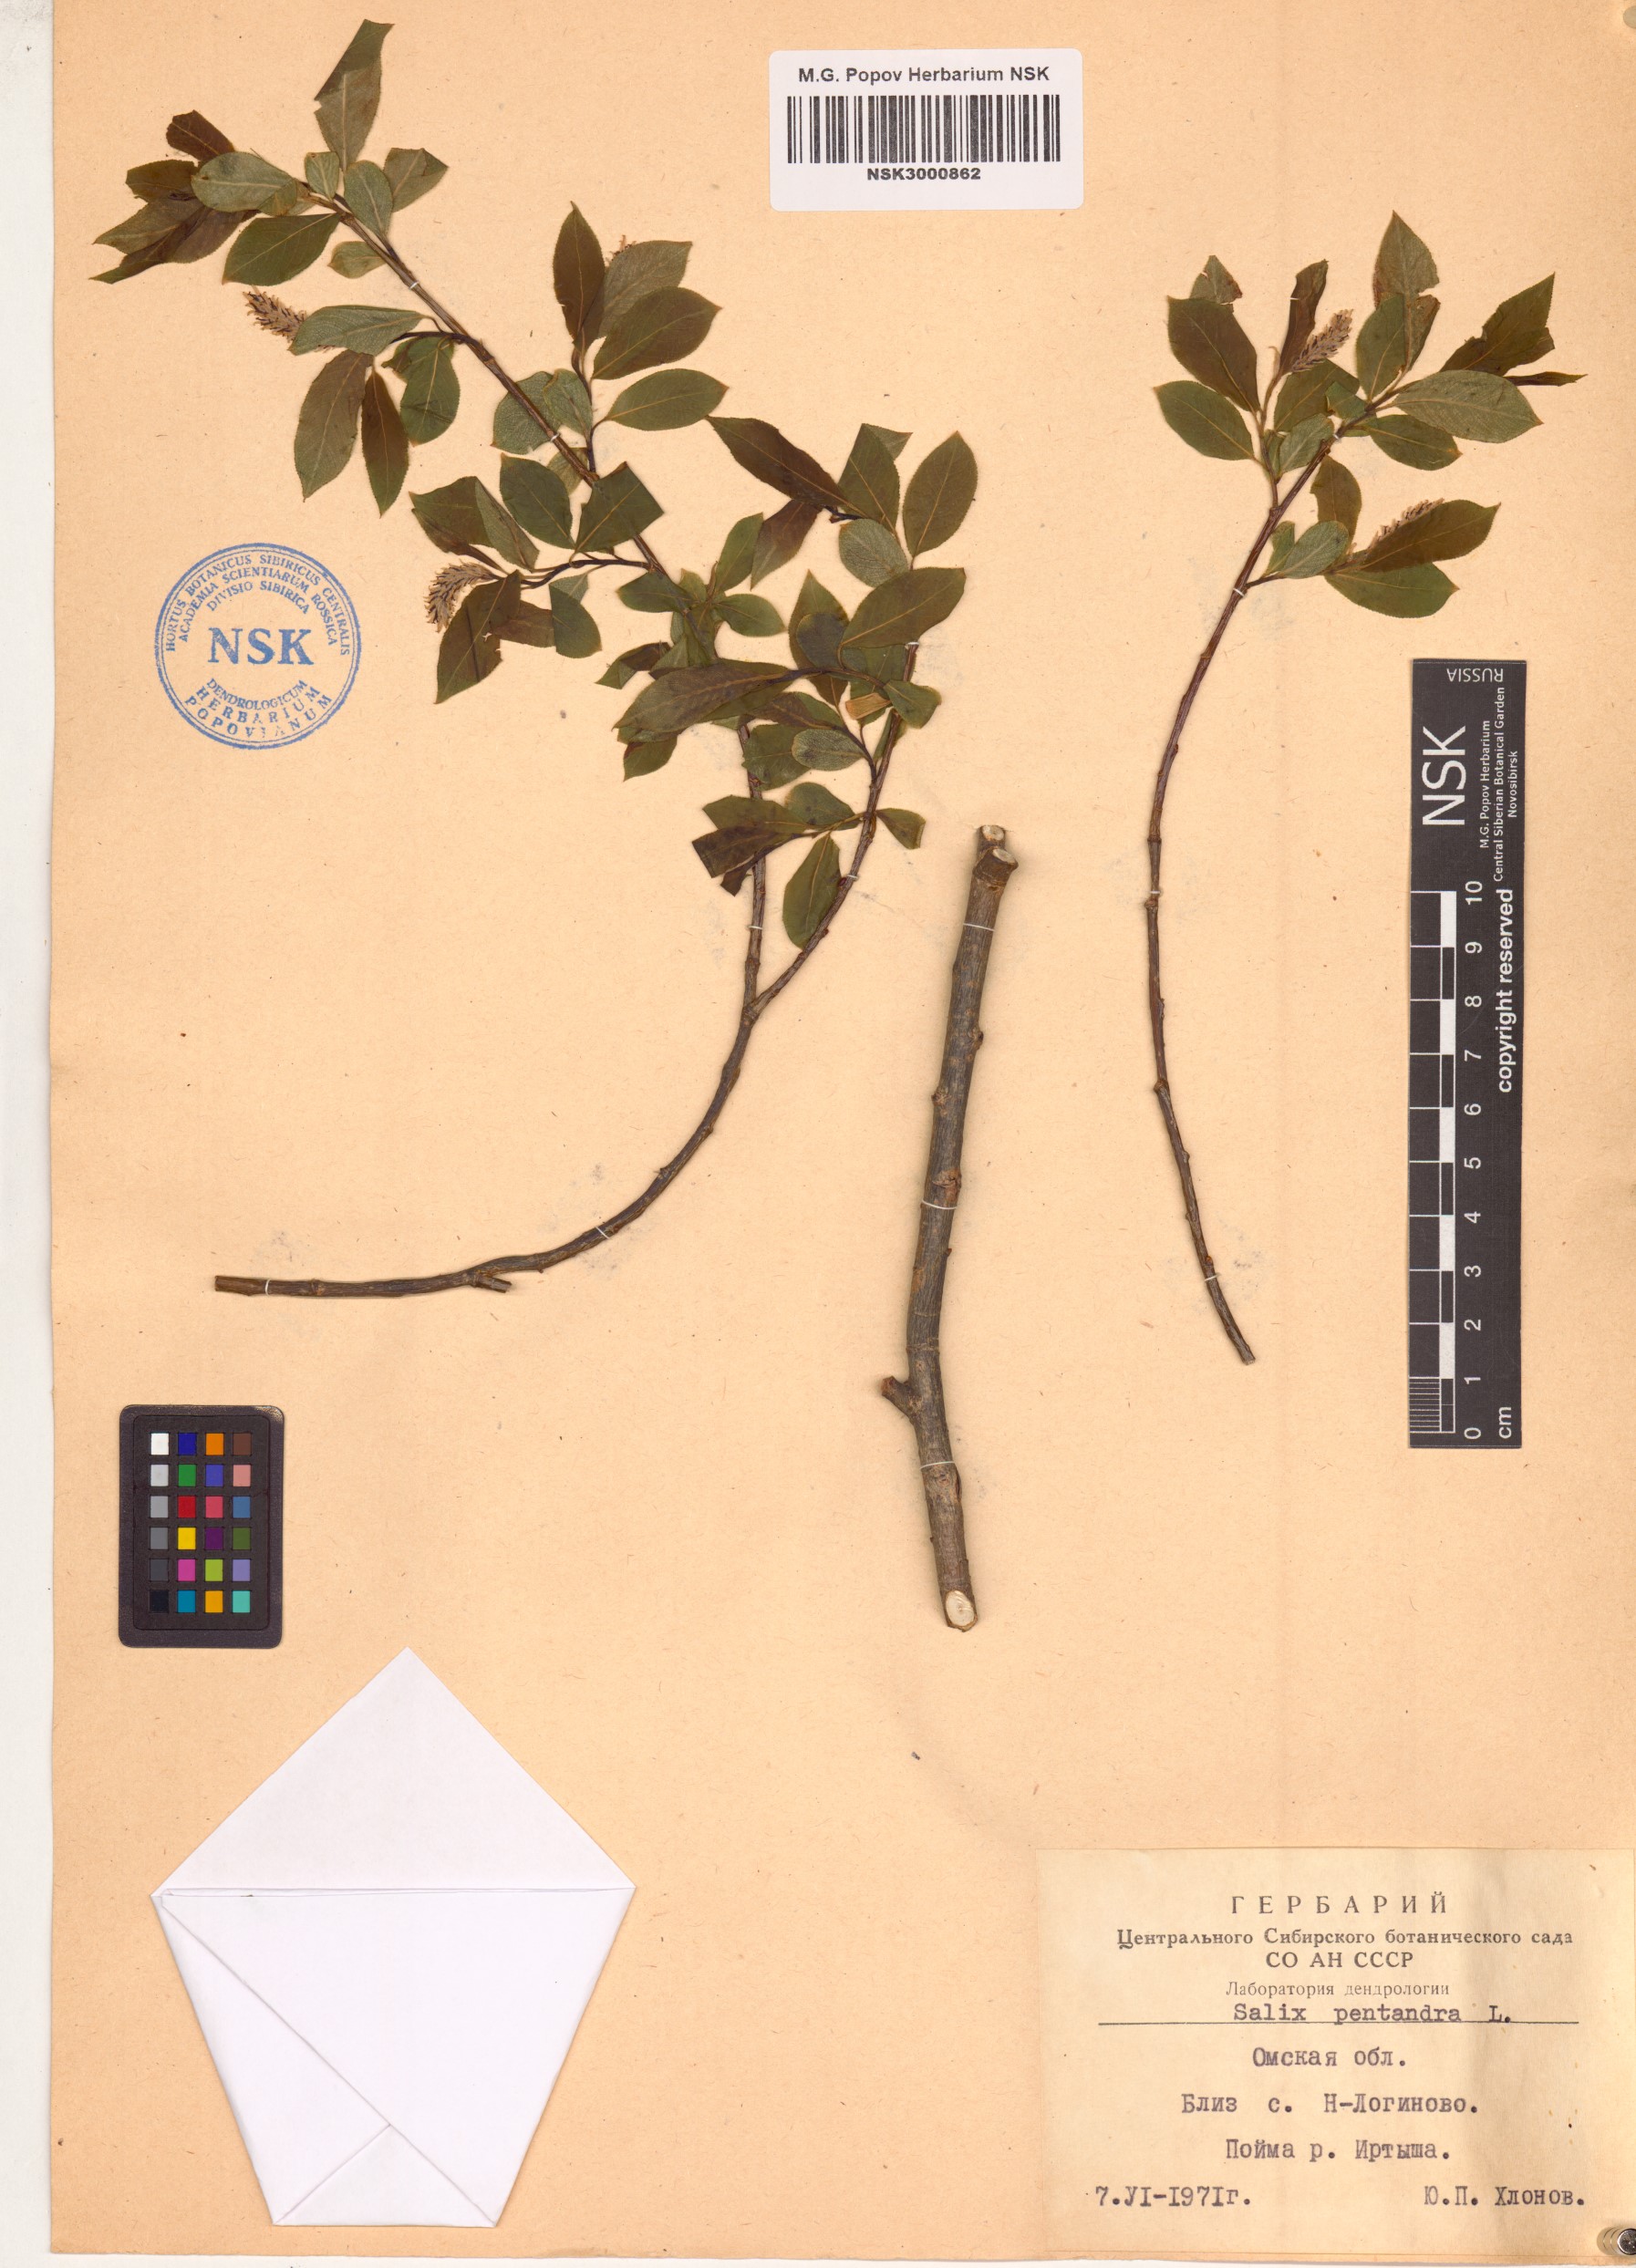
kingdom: Plantae
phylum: Tracheophyta
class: Magnoliopsida
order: Malpighiales
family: Salicaceae
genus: Salix
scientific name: Salix pentandra
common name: Bay willow
